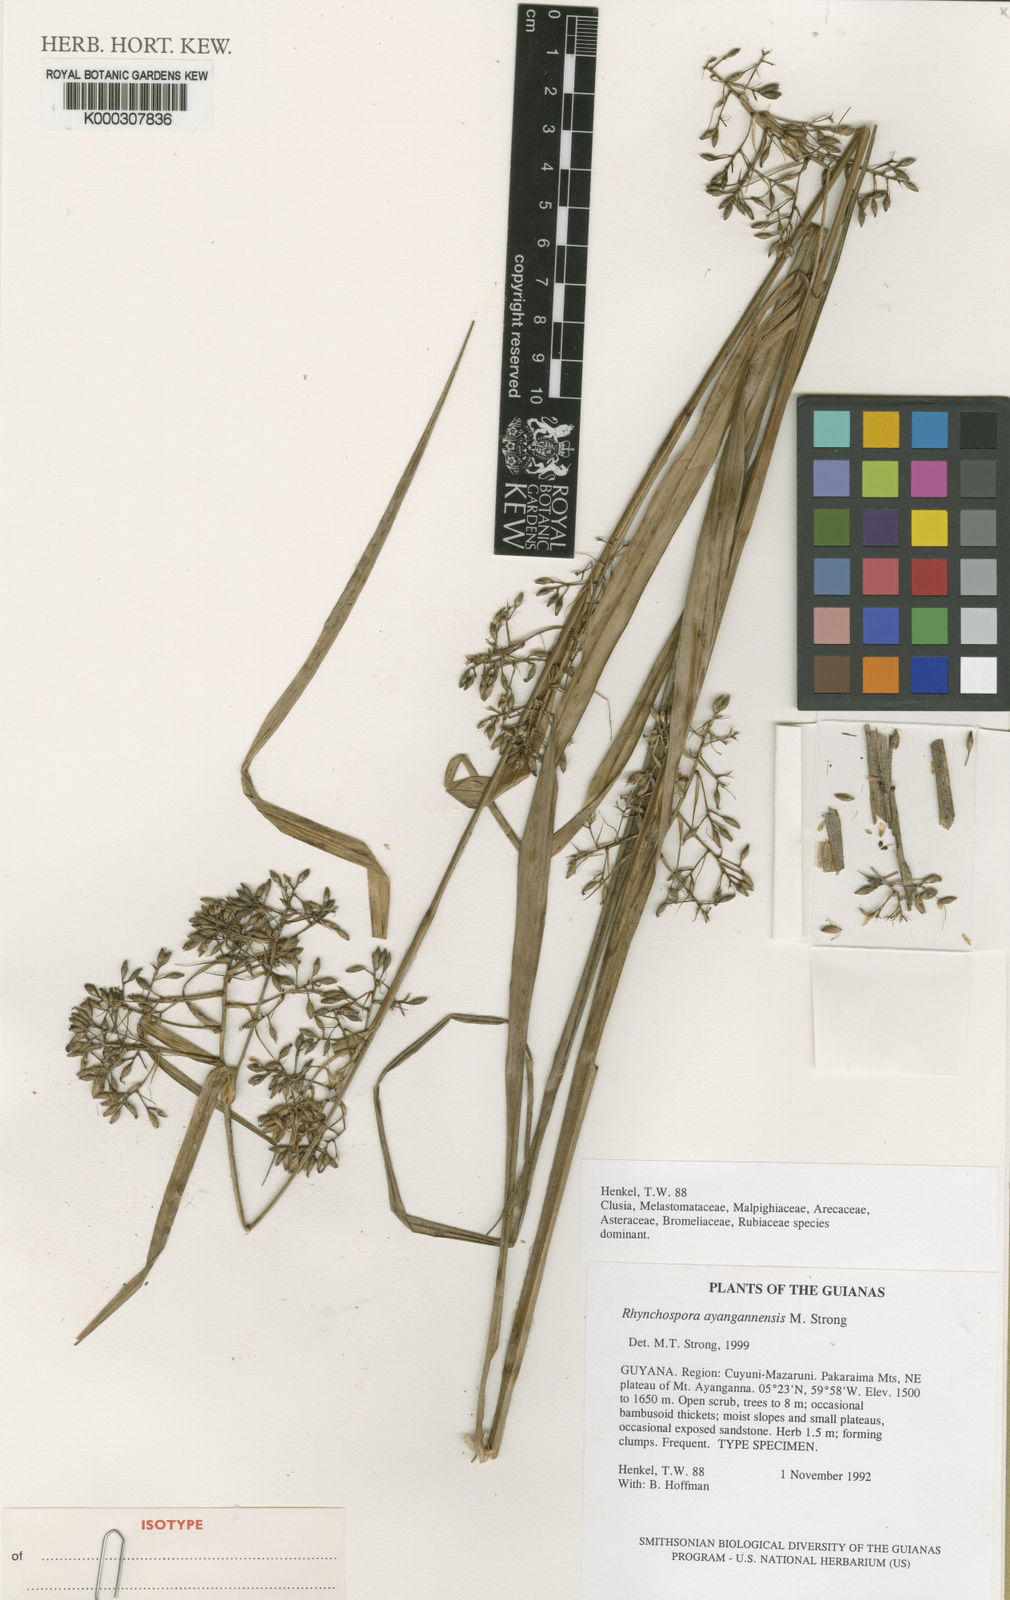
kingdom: Plantae
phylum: Tracheophyta
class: Liliopsida
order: Poales
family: Cyperaceae
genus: Rhynchospora
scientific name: Rhynchospora ayangannensis
